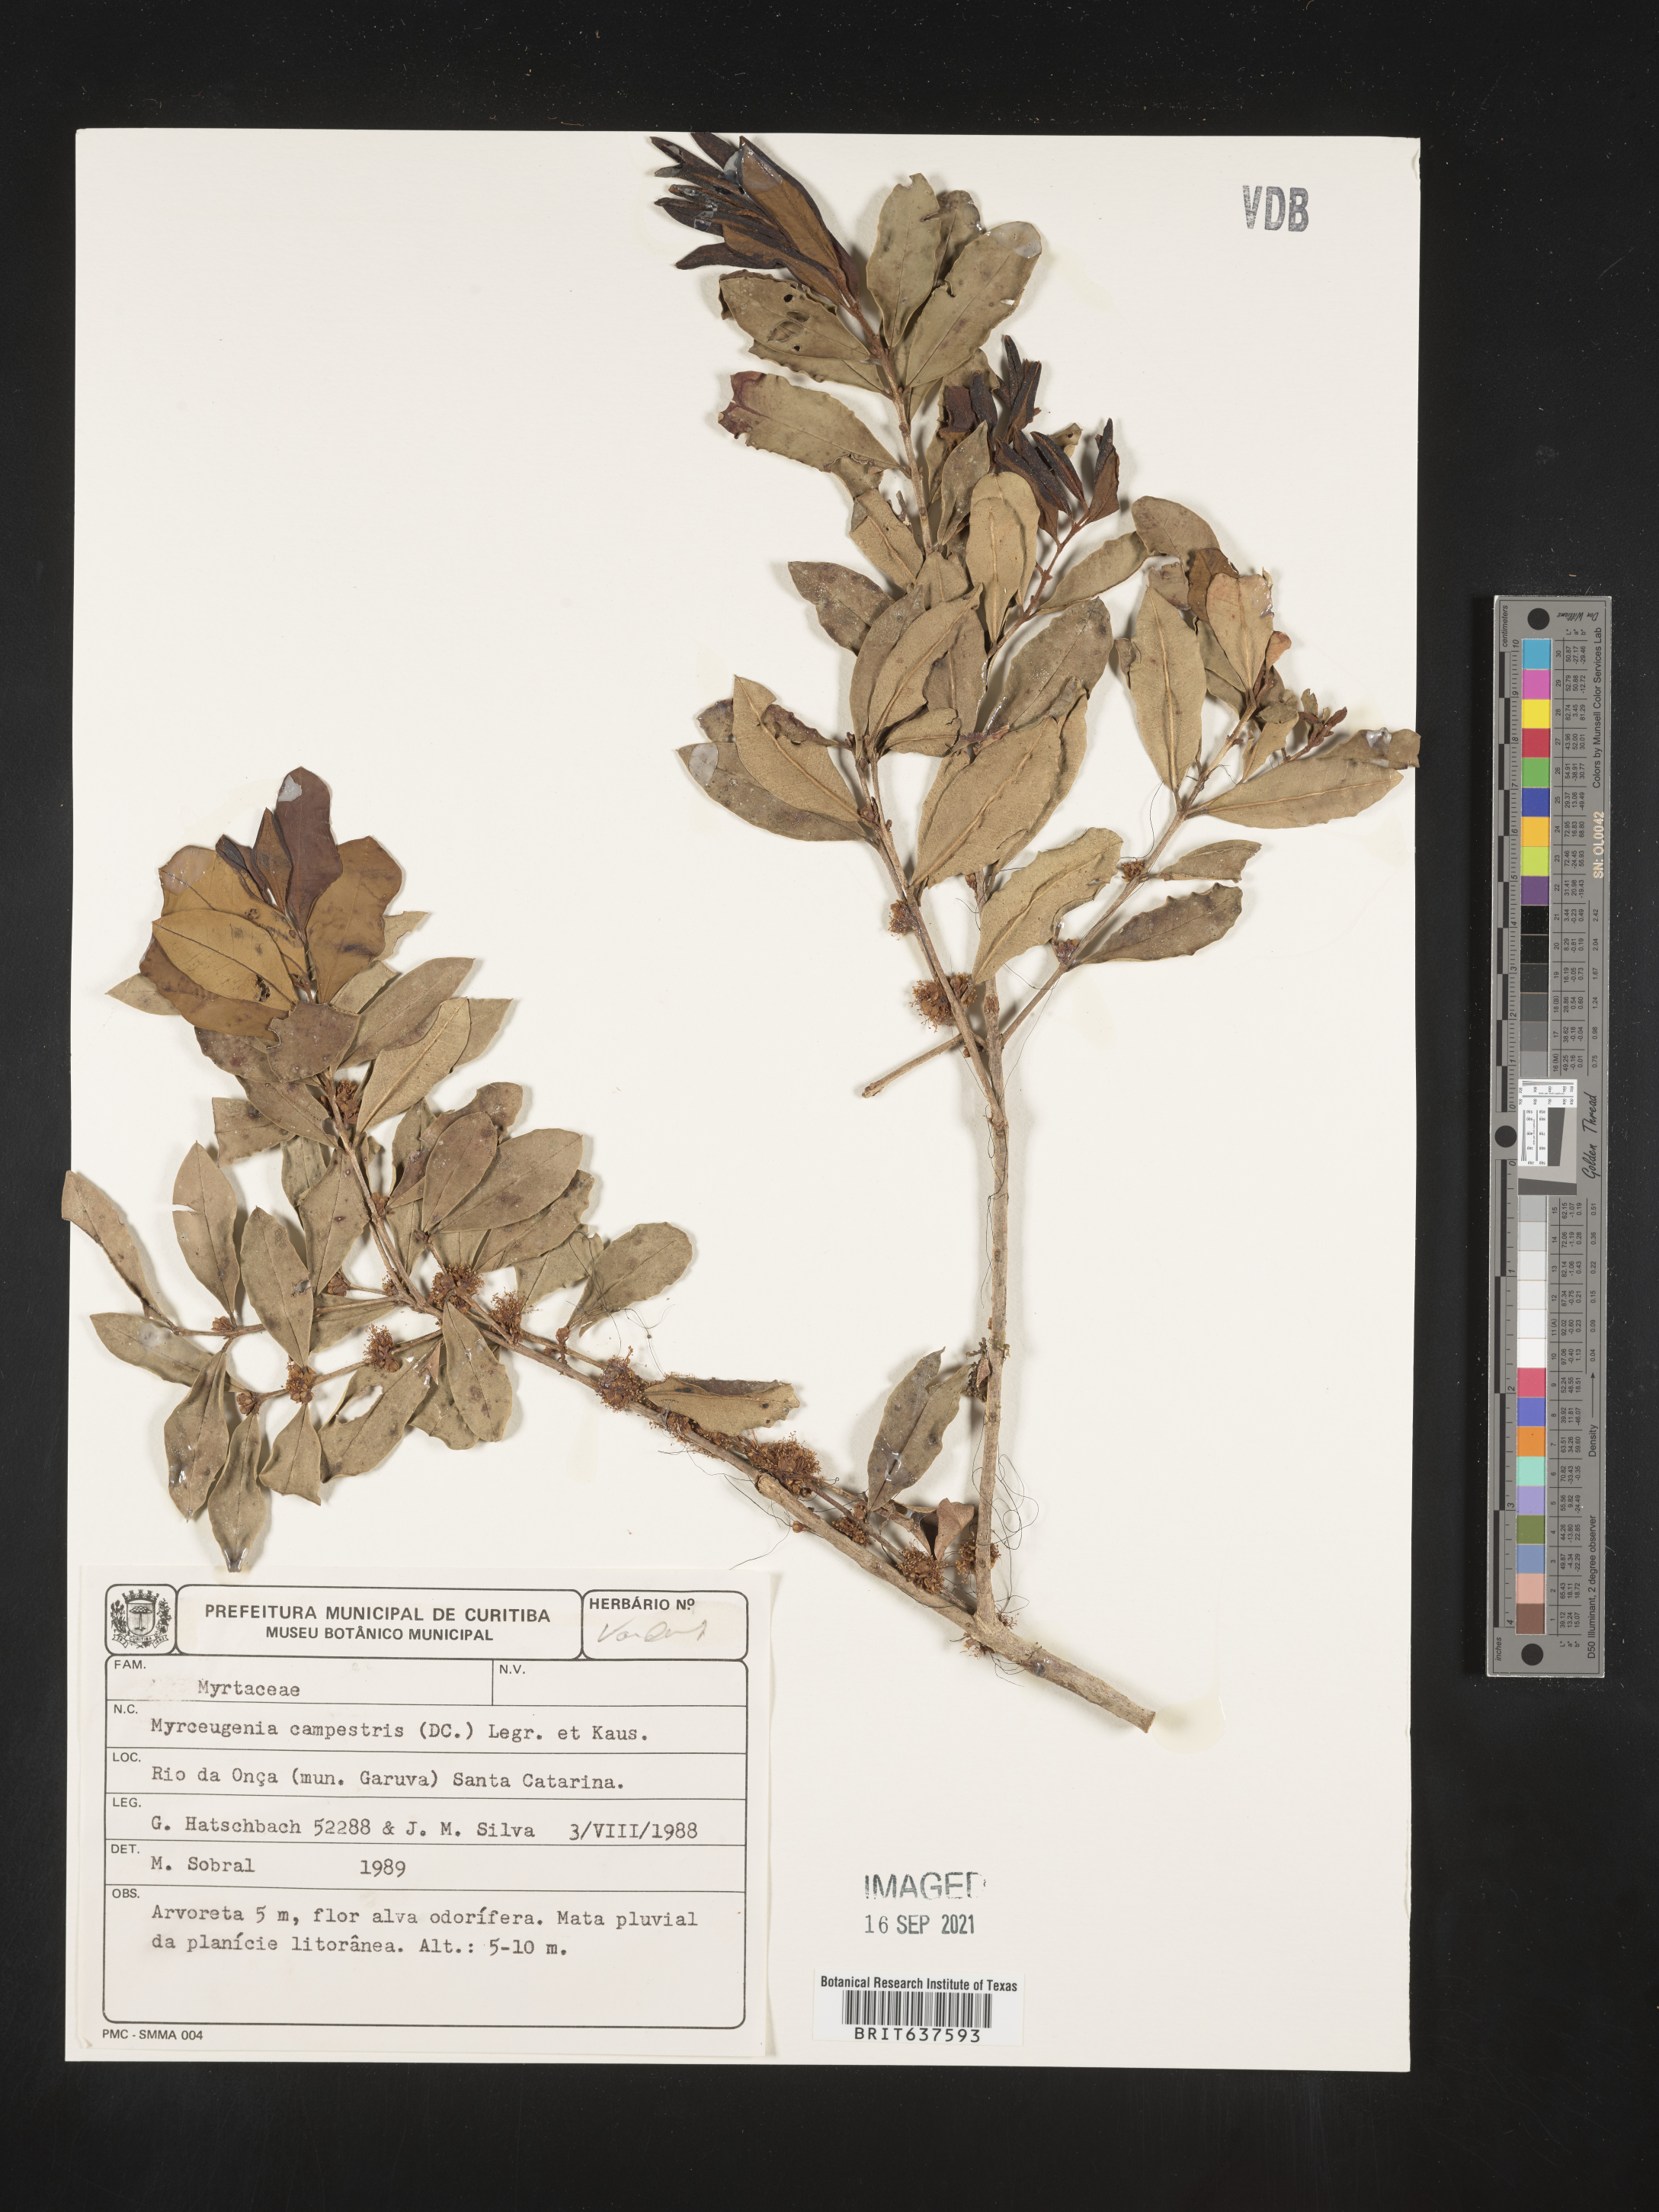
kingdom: Plantae
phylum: Tracheophyta
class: Magnoliopsida
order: Myrtales
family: Myrtaceae
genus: Myrceugenia
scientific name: Myrceugenia
